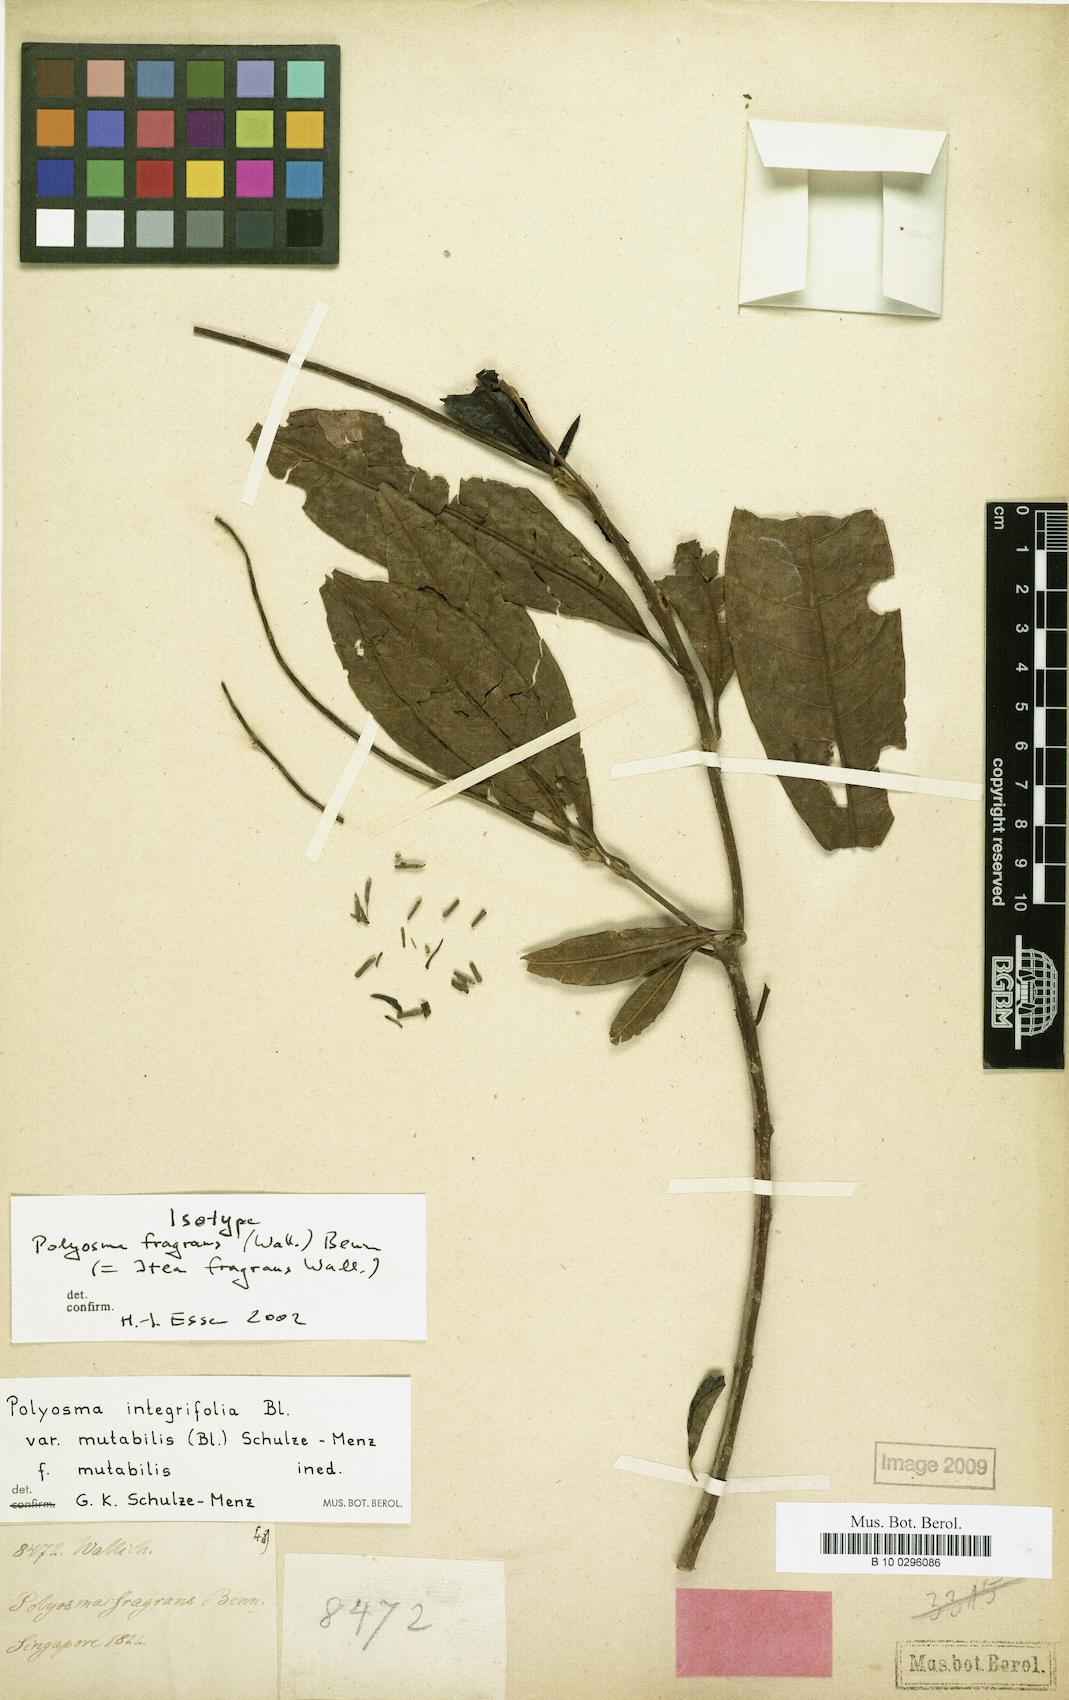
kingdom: Plantae
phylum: Tracheophyta
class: Magnoliopsida
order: Escalloniales
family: Escalloniaceae
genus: Polyosma
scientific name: Polyosma fragrans
